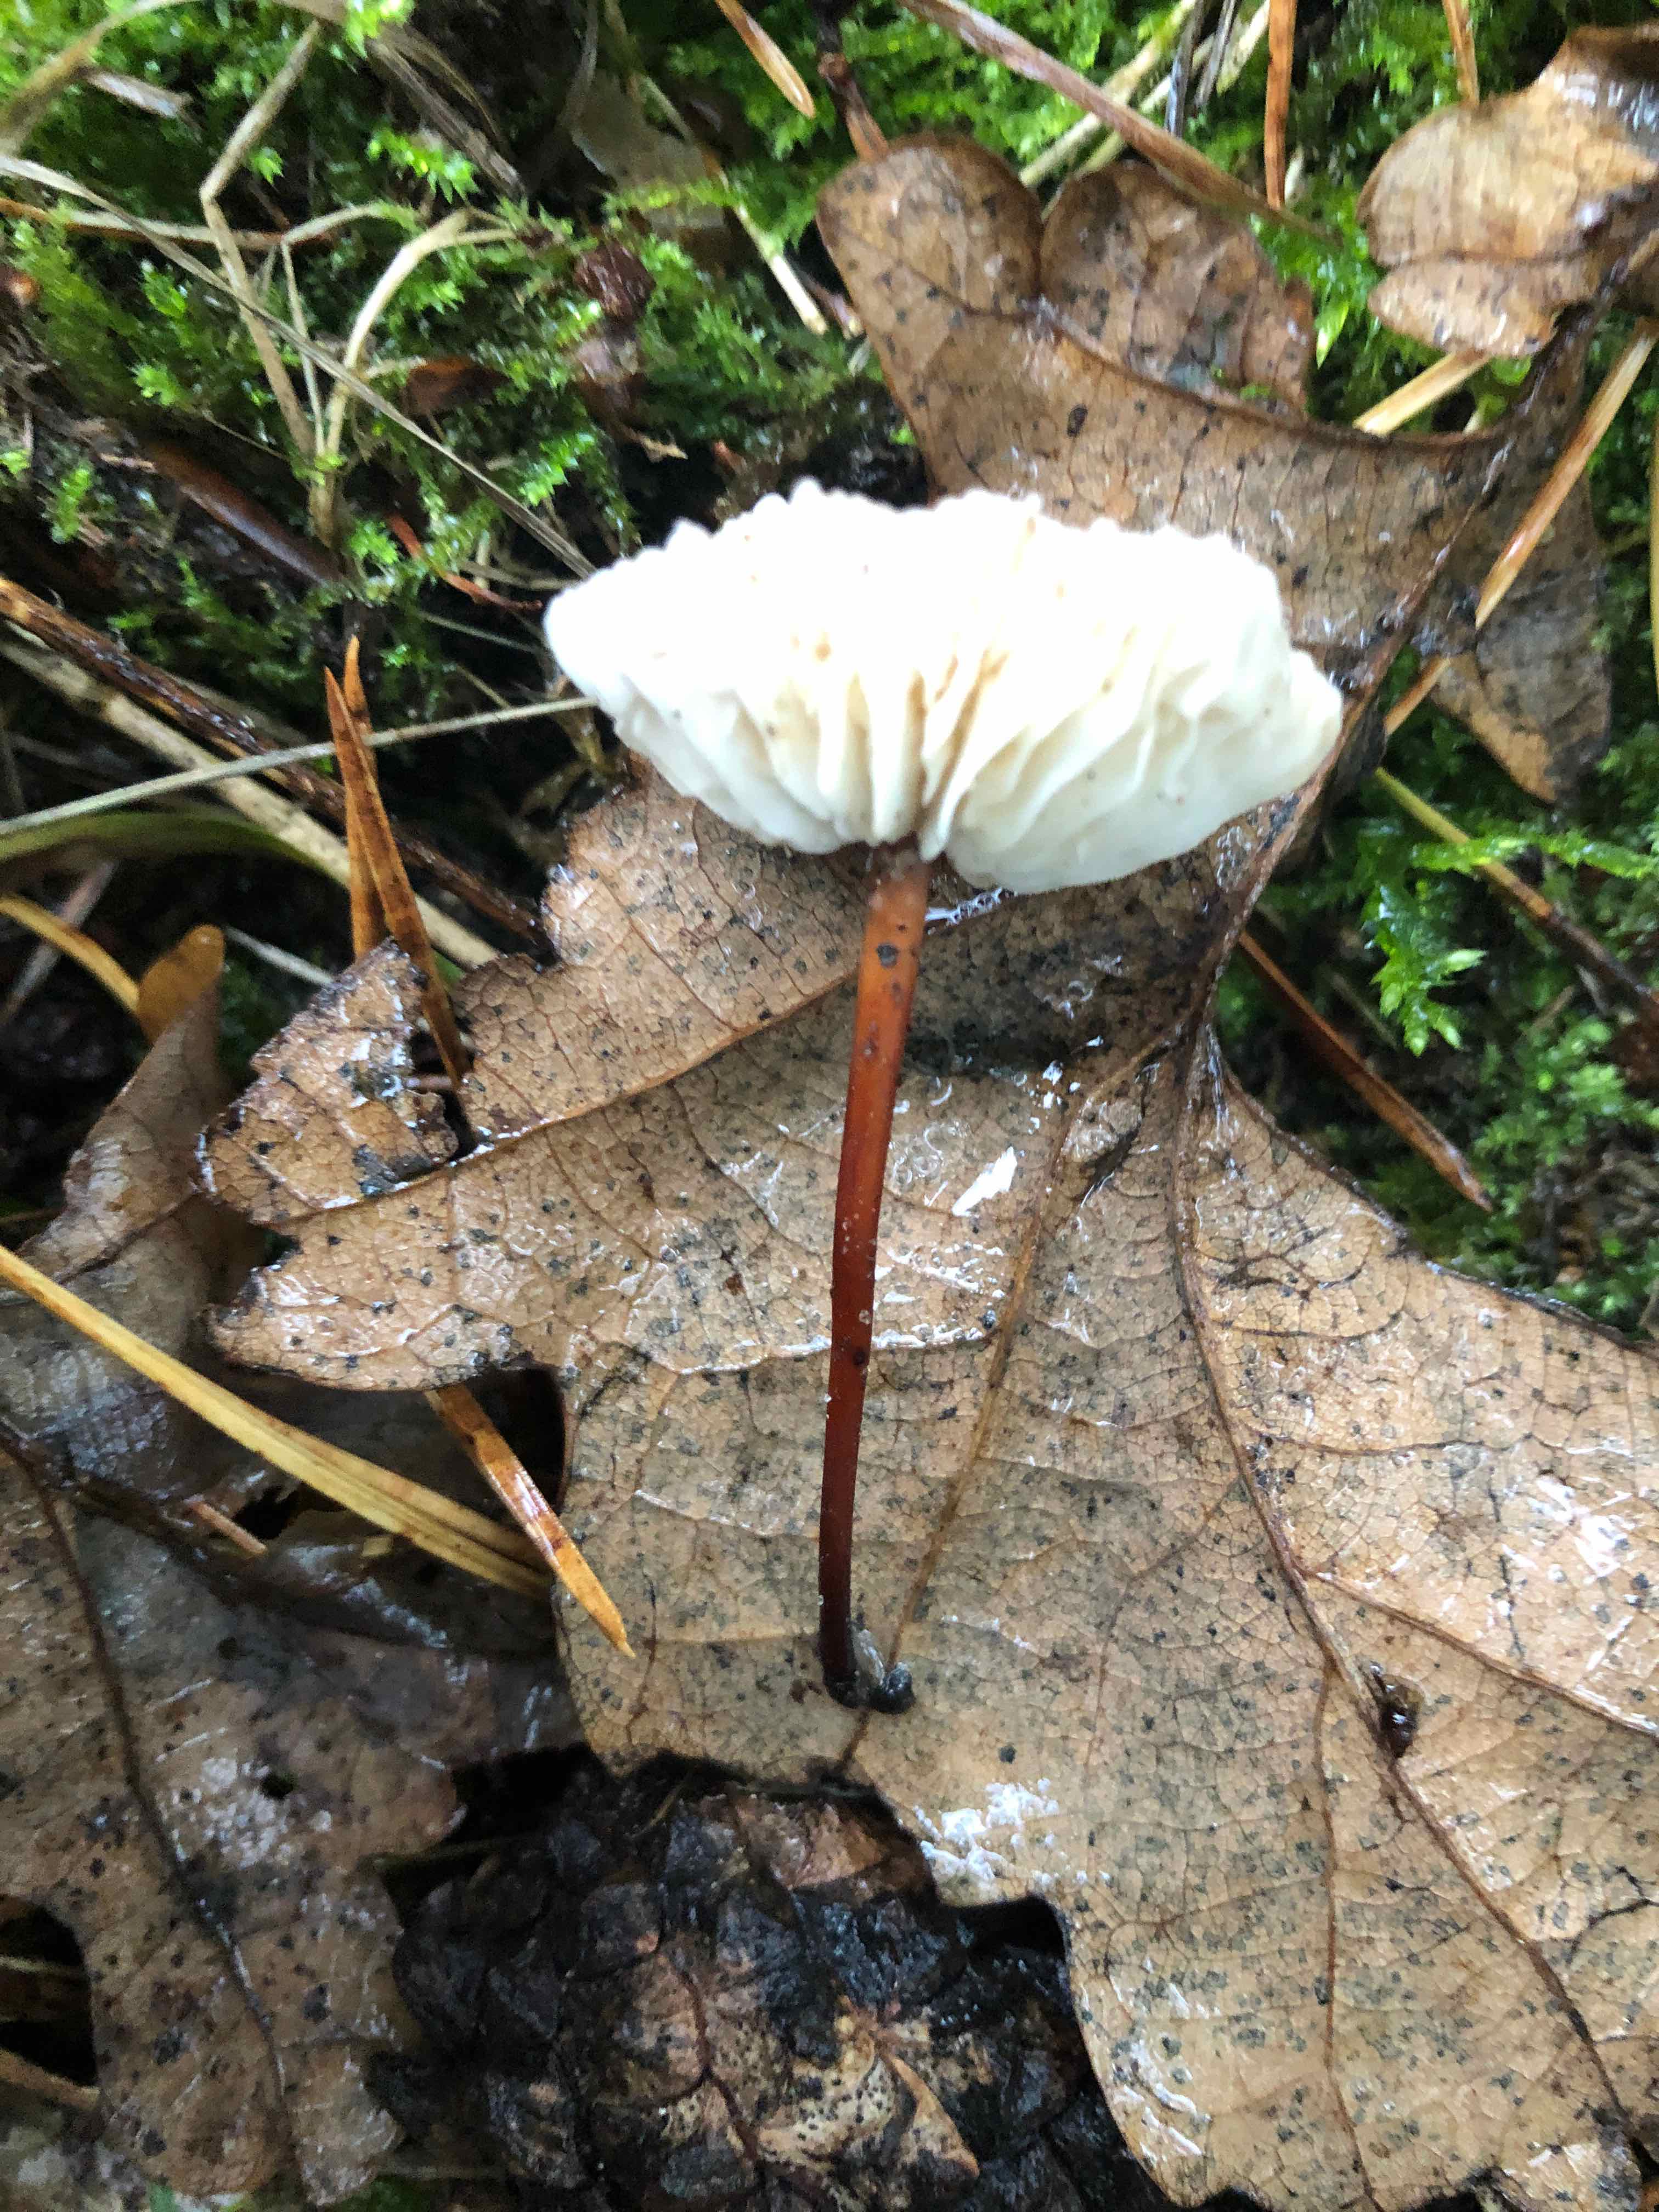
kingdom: Fungi
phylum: Basidiomycota
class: Agaricomycetes
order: Agaricales
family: Omphalotaceae
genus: Mycetinis
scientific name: Mycetinis scorodonius
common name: lille løghat
